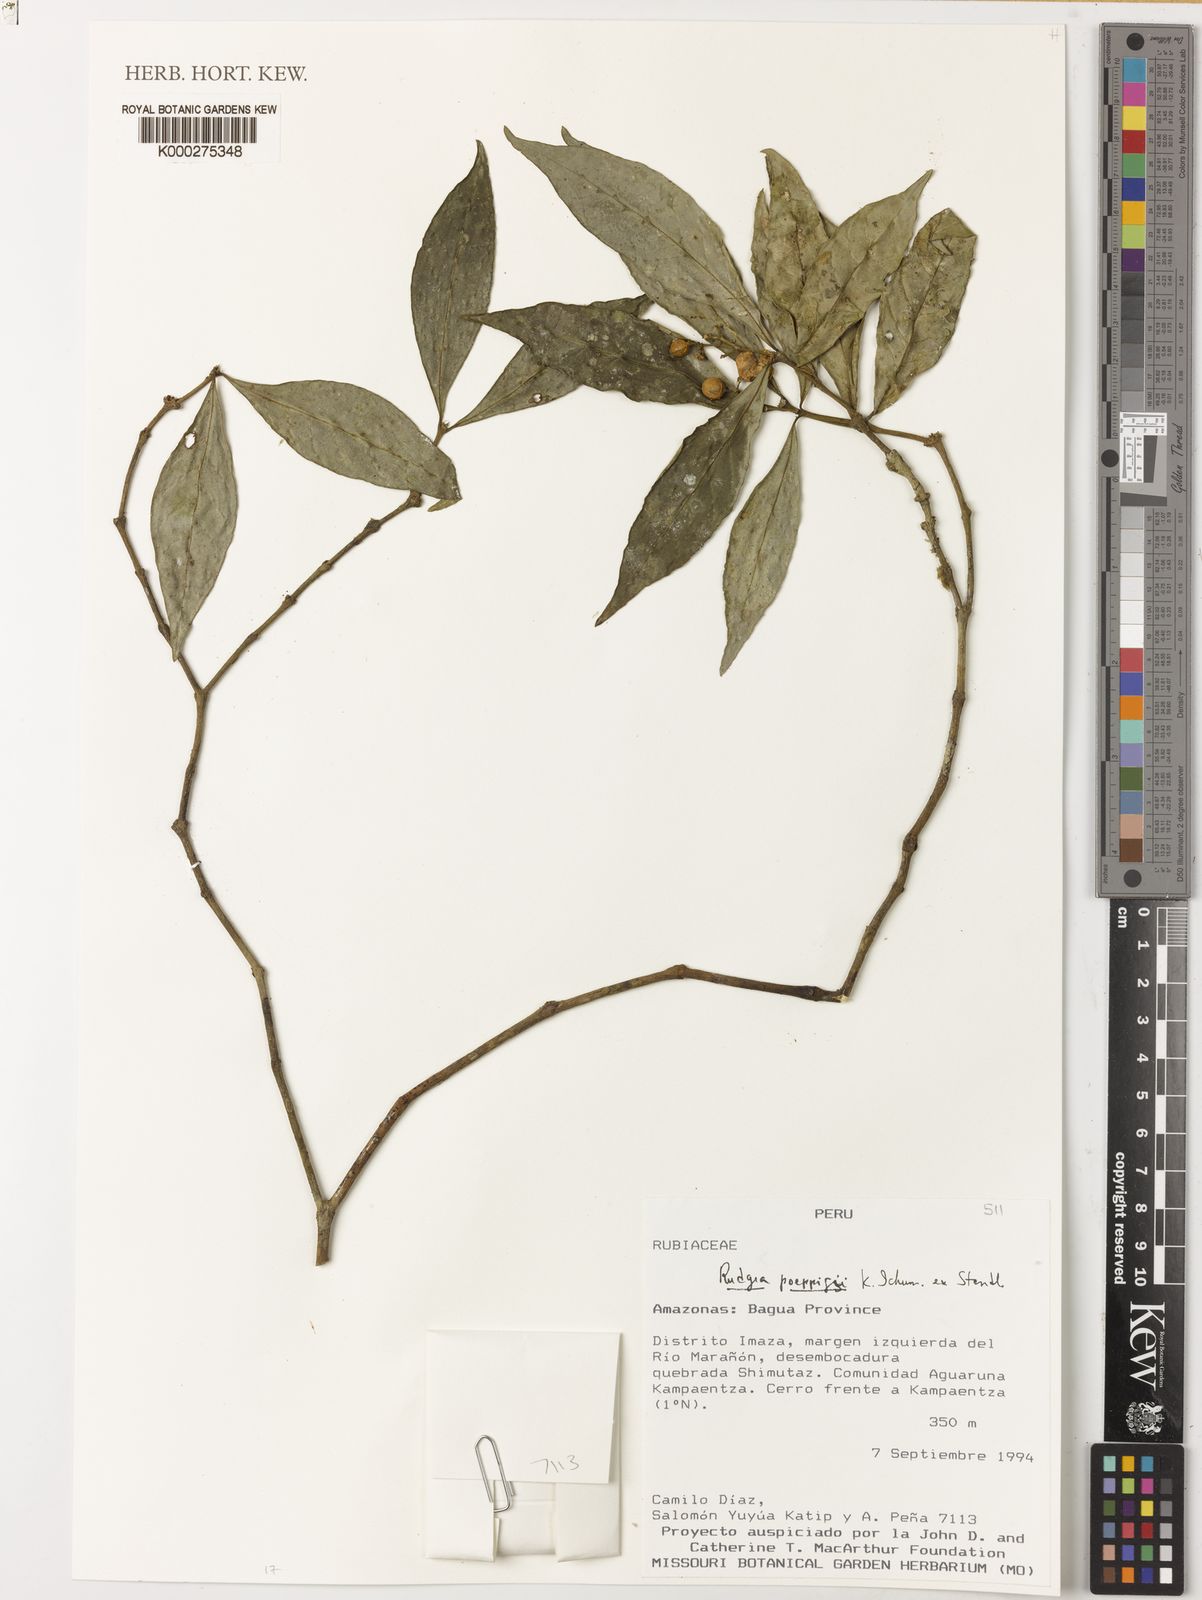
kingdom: Plantae
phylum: Tracheophyta
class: Magnoliopsida
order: Gentianales
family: Rubiaceae
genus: Rudgea
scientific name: Rudgea
